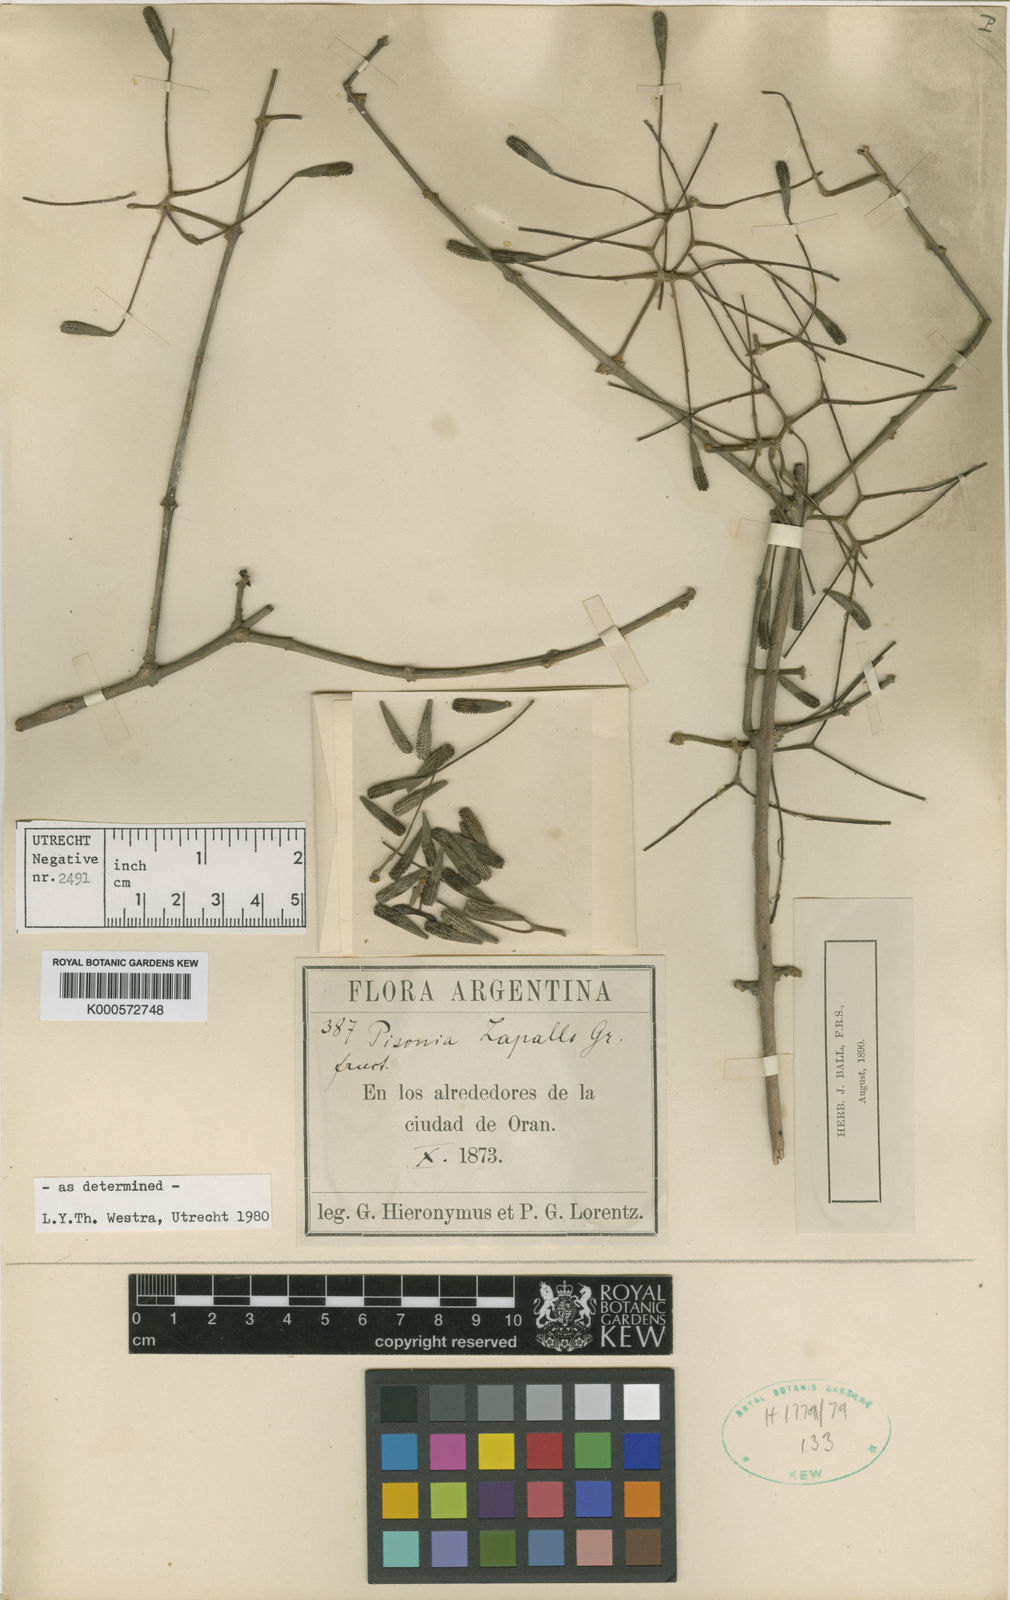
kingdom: Plantae
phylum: Tracheophyta
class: Magnoliopsida
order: Caryophyllales
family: Nyctaginaceae
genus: Pisonia
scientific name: Pisonia zapallo
